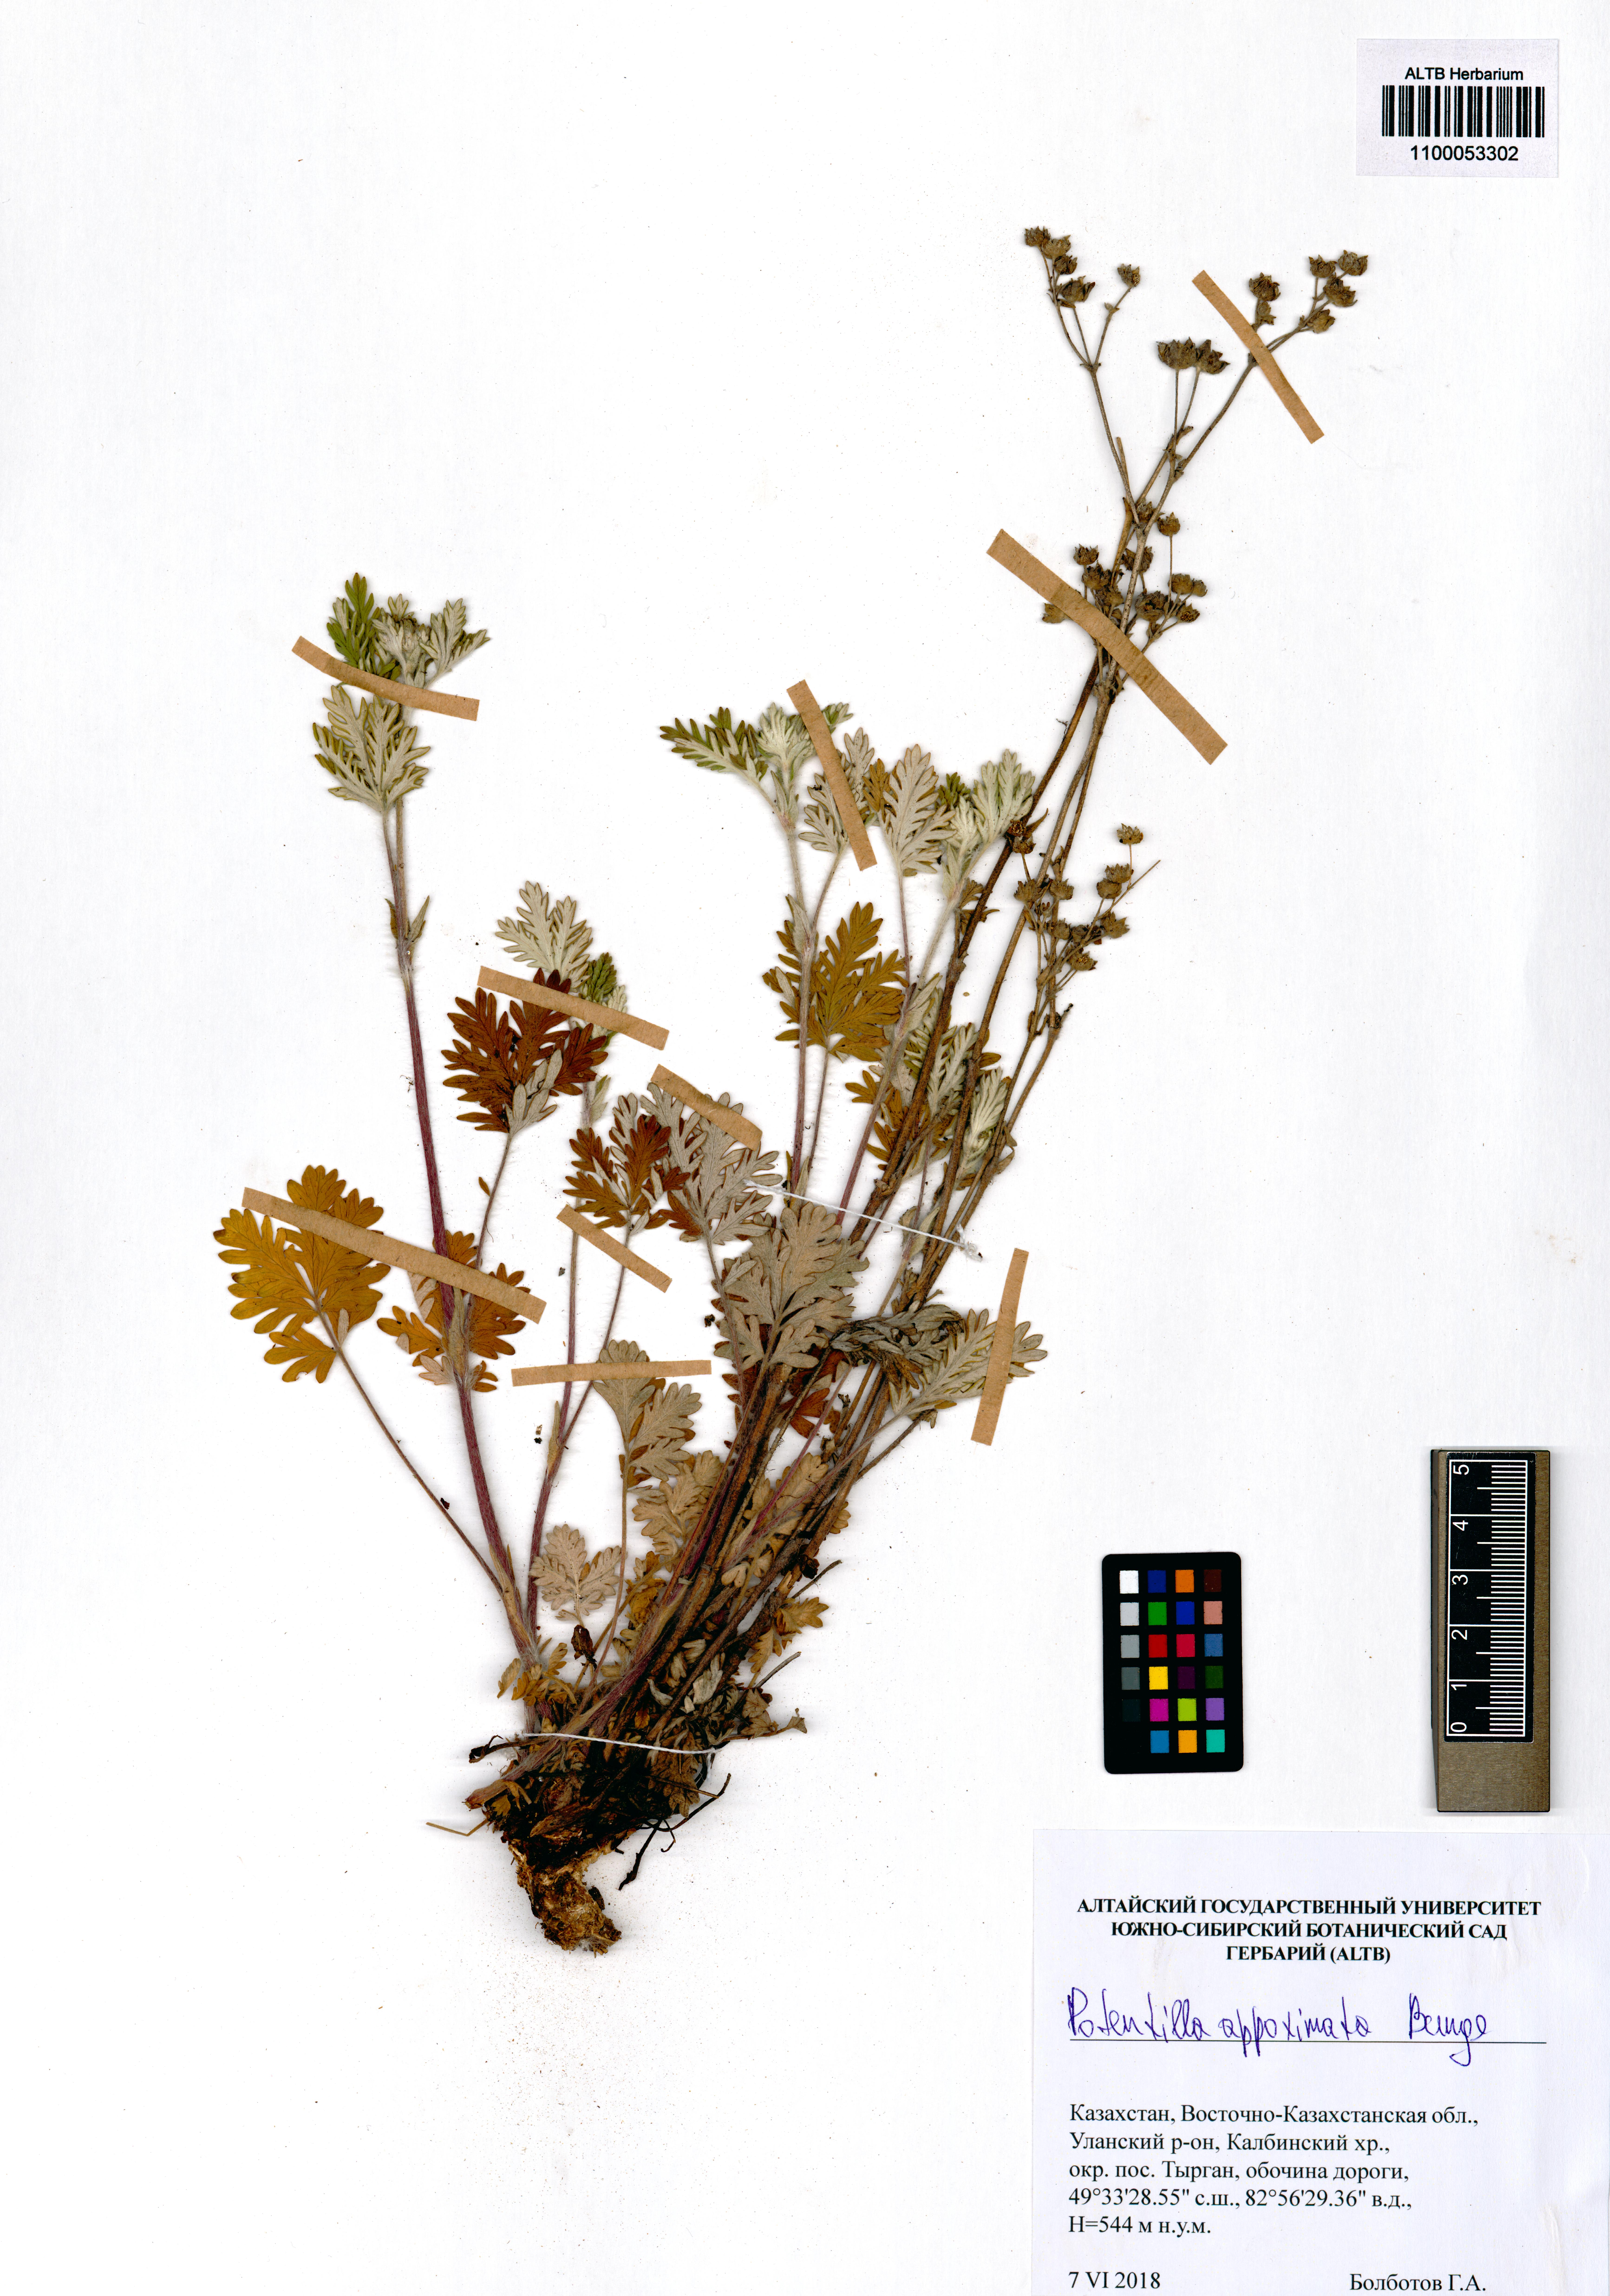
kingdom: Plantae
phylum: Tracheophyta
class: Magnoliopsida
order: Rosales
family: Rosaceae
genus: Potentilla
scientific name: Potentilla conferta
